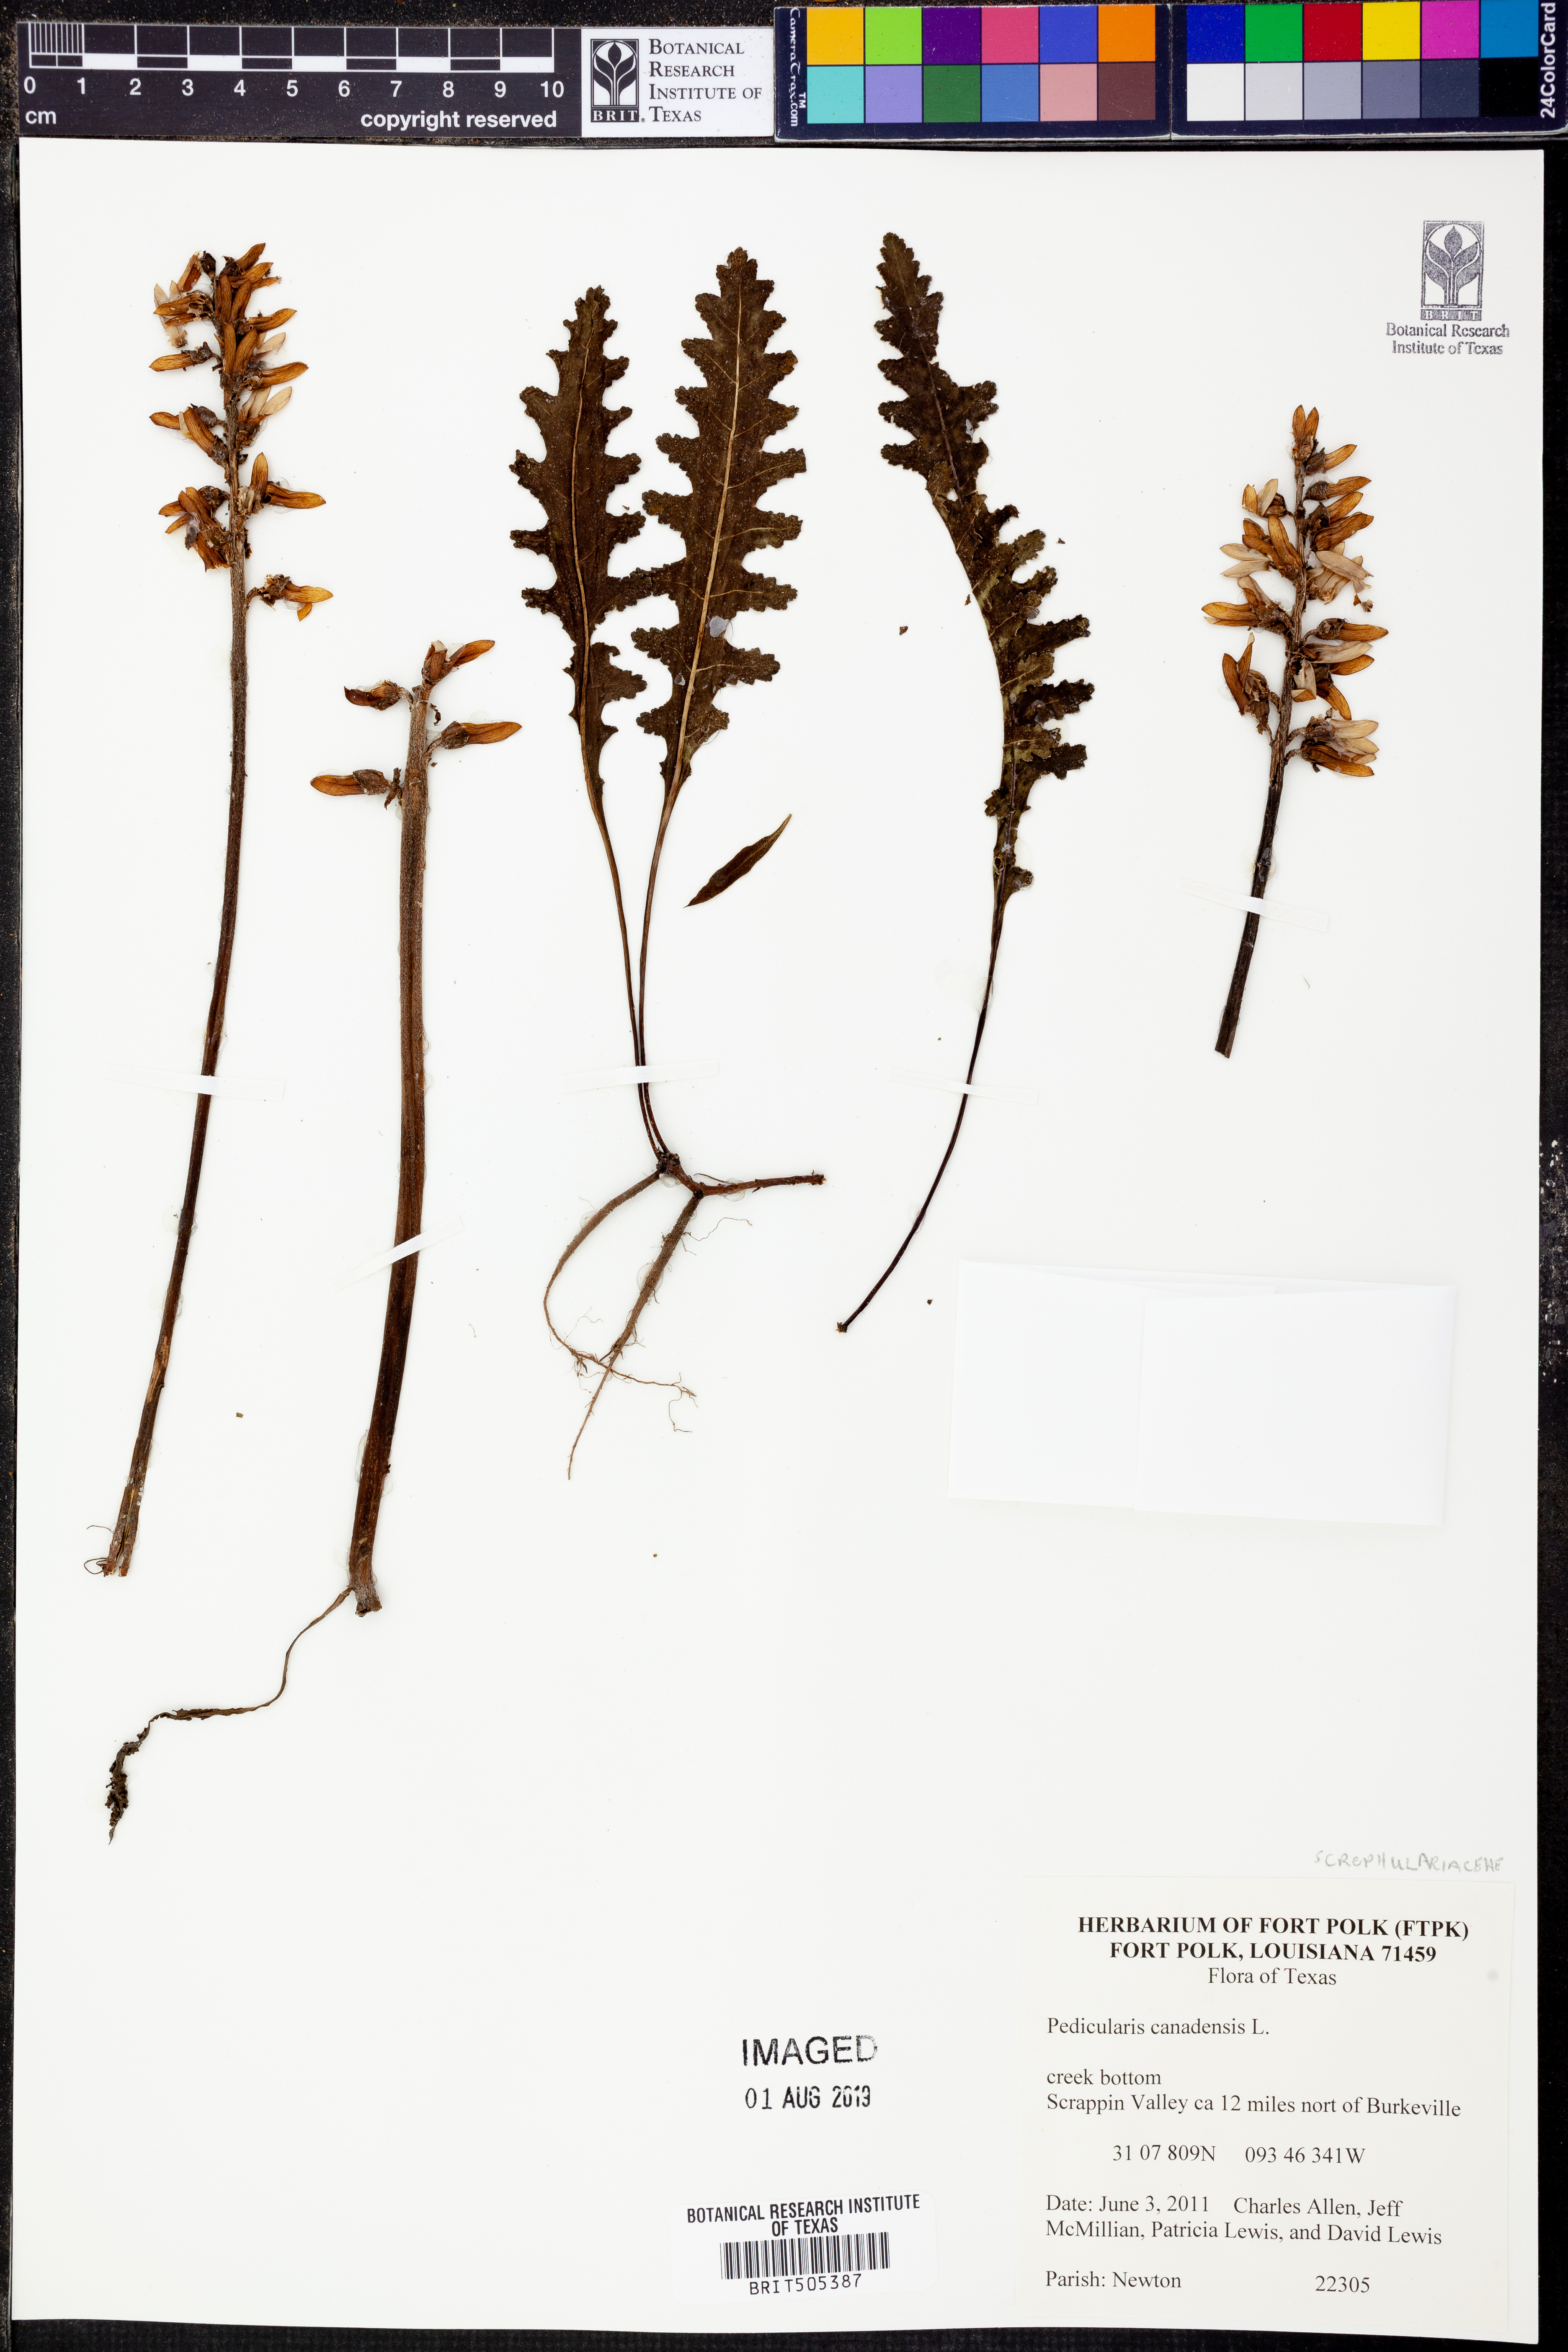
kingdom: Plantae
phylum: Tracheophyta
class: Magnoliopsida
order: Lamiales
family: Orobanchaceae
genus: Pedicularis
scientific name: Pedicularis canadensis
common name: Early lousewort
